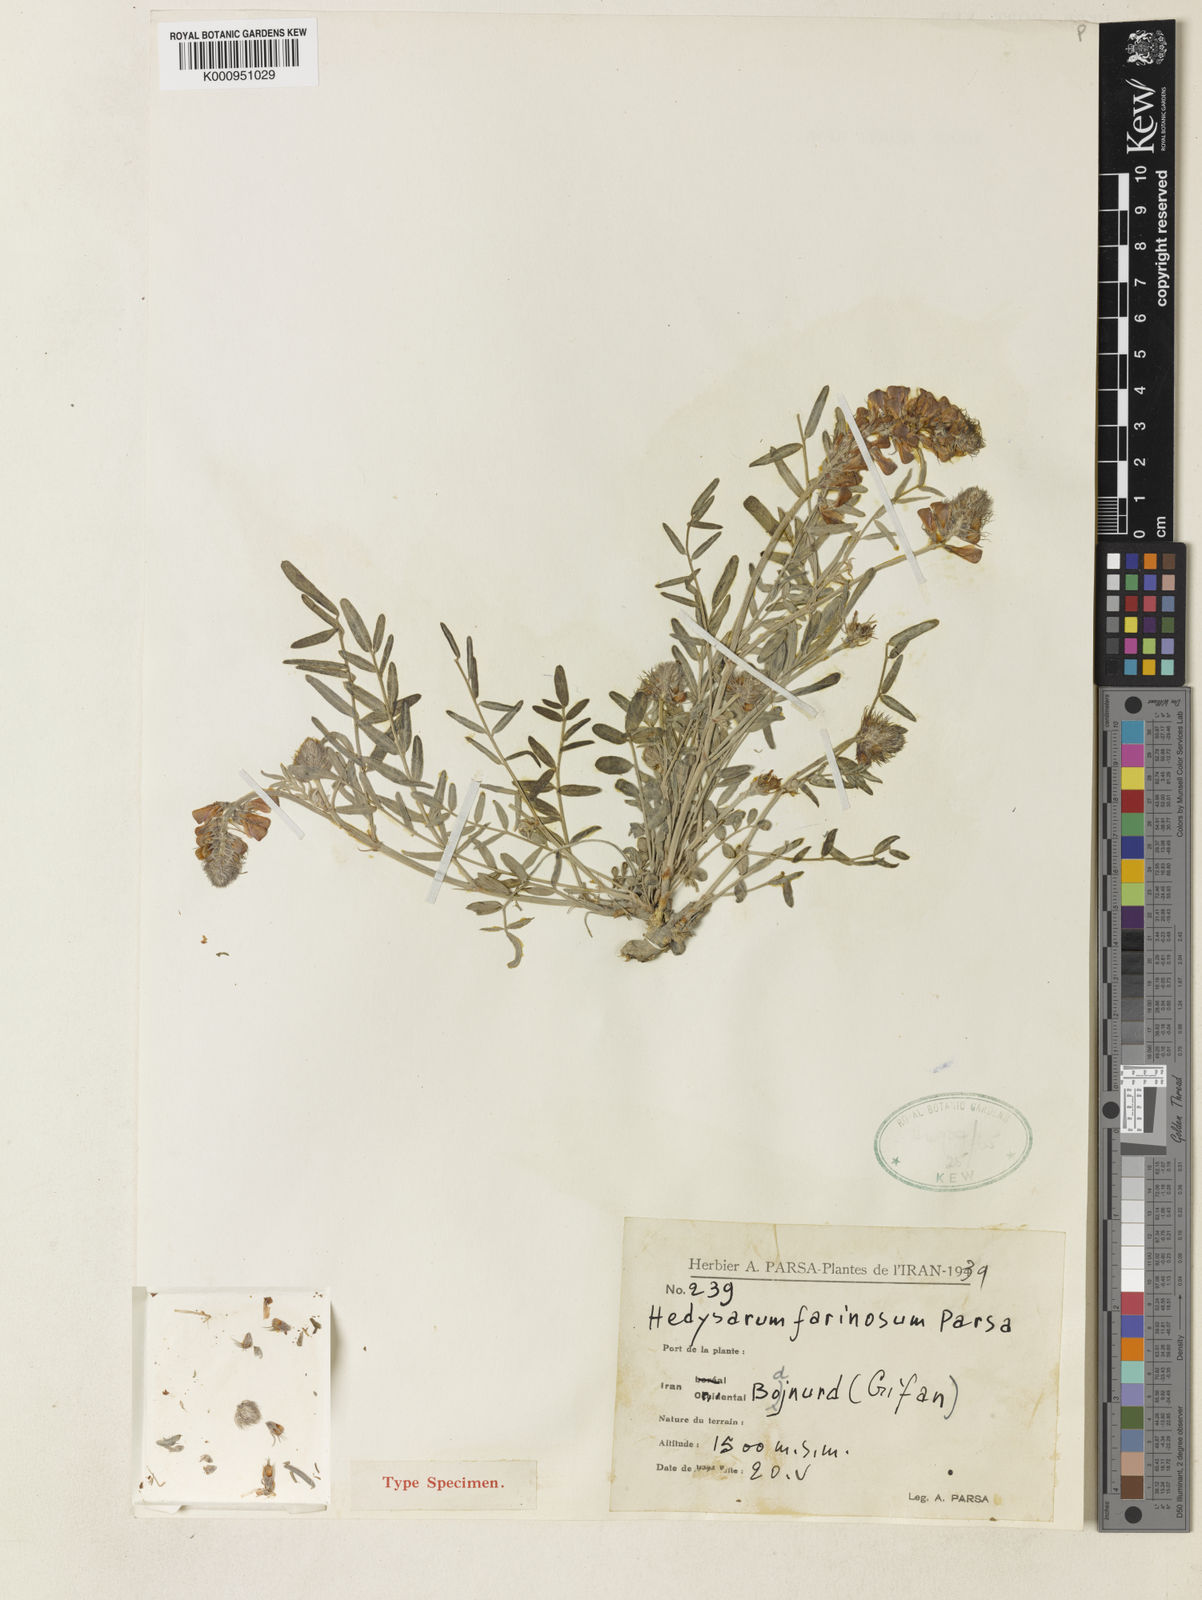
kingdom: Plantae
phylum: Tracheophyta
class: Magnoliopsida
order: Fabales
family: Fabaceae
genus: Hedysarum
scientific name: Hedysarum farinosum
